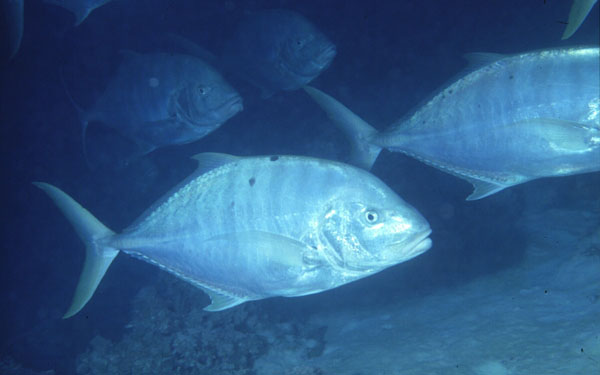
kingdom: Animalia
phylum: Chordata
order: Perciformes
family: Carangidae
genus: Gnathanodon
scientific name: Gnathanodon speciosus
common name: Golden toothless trevally
